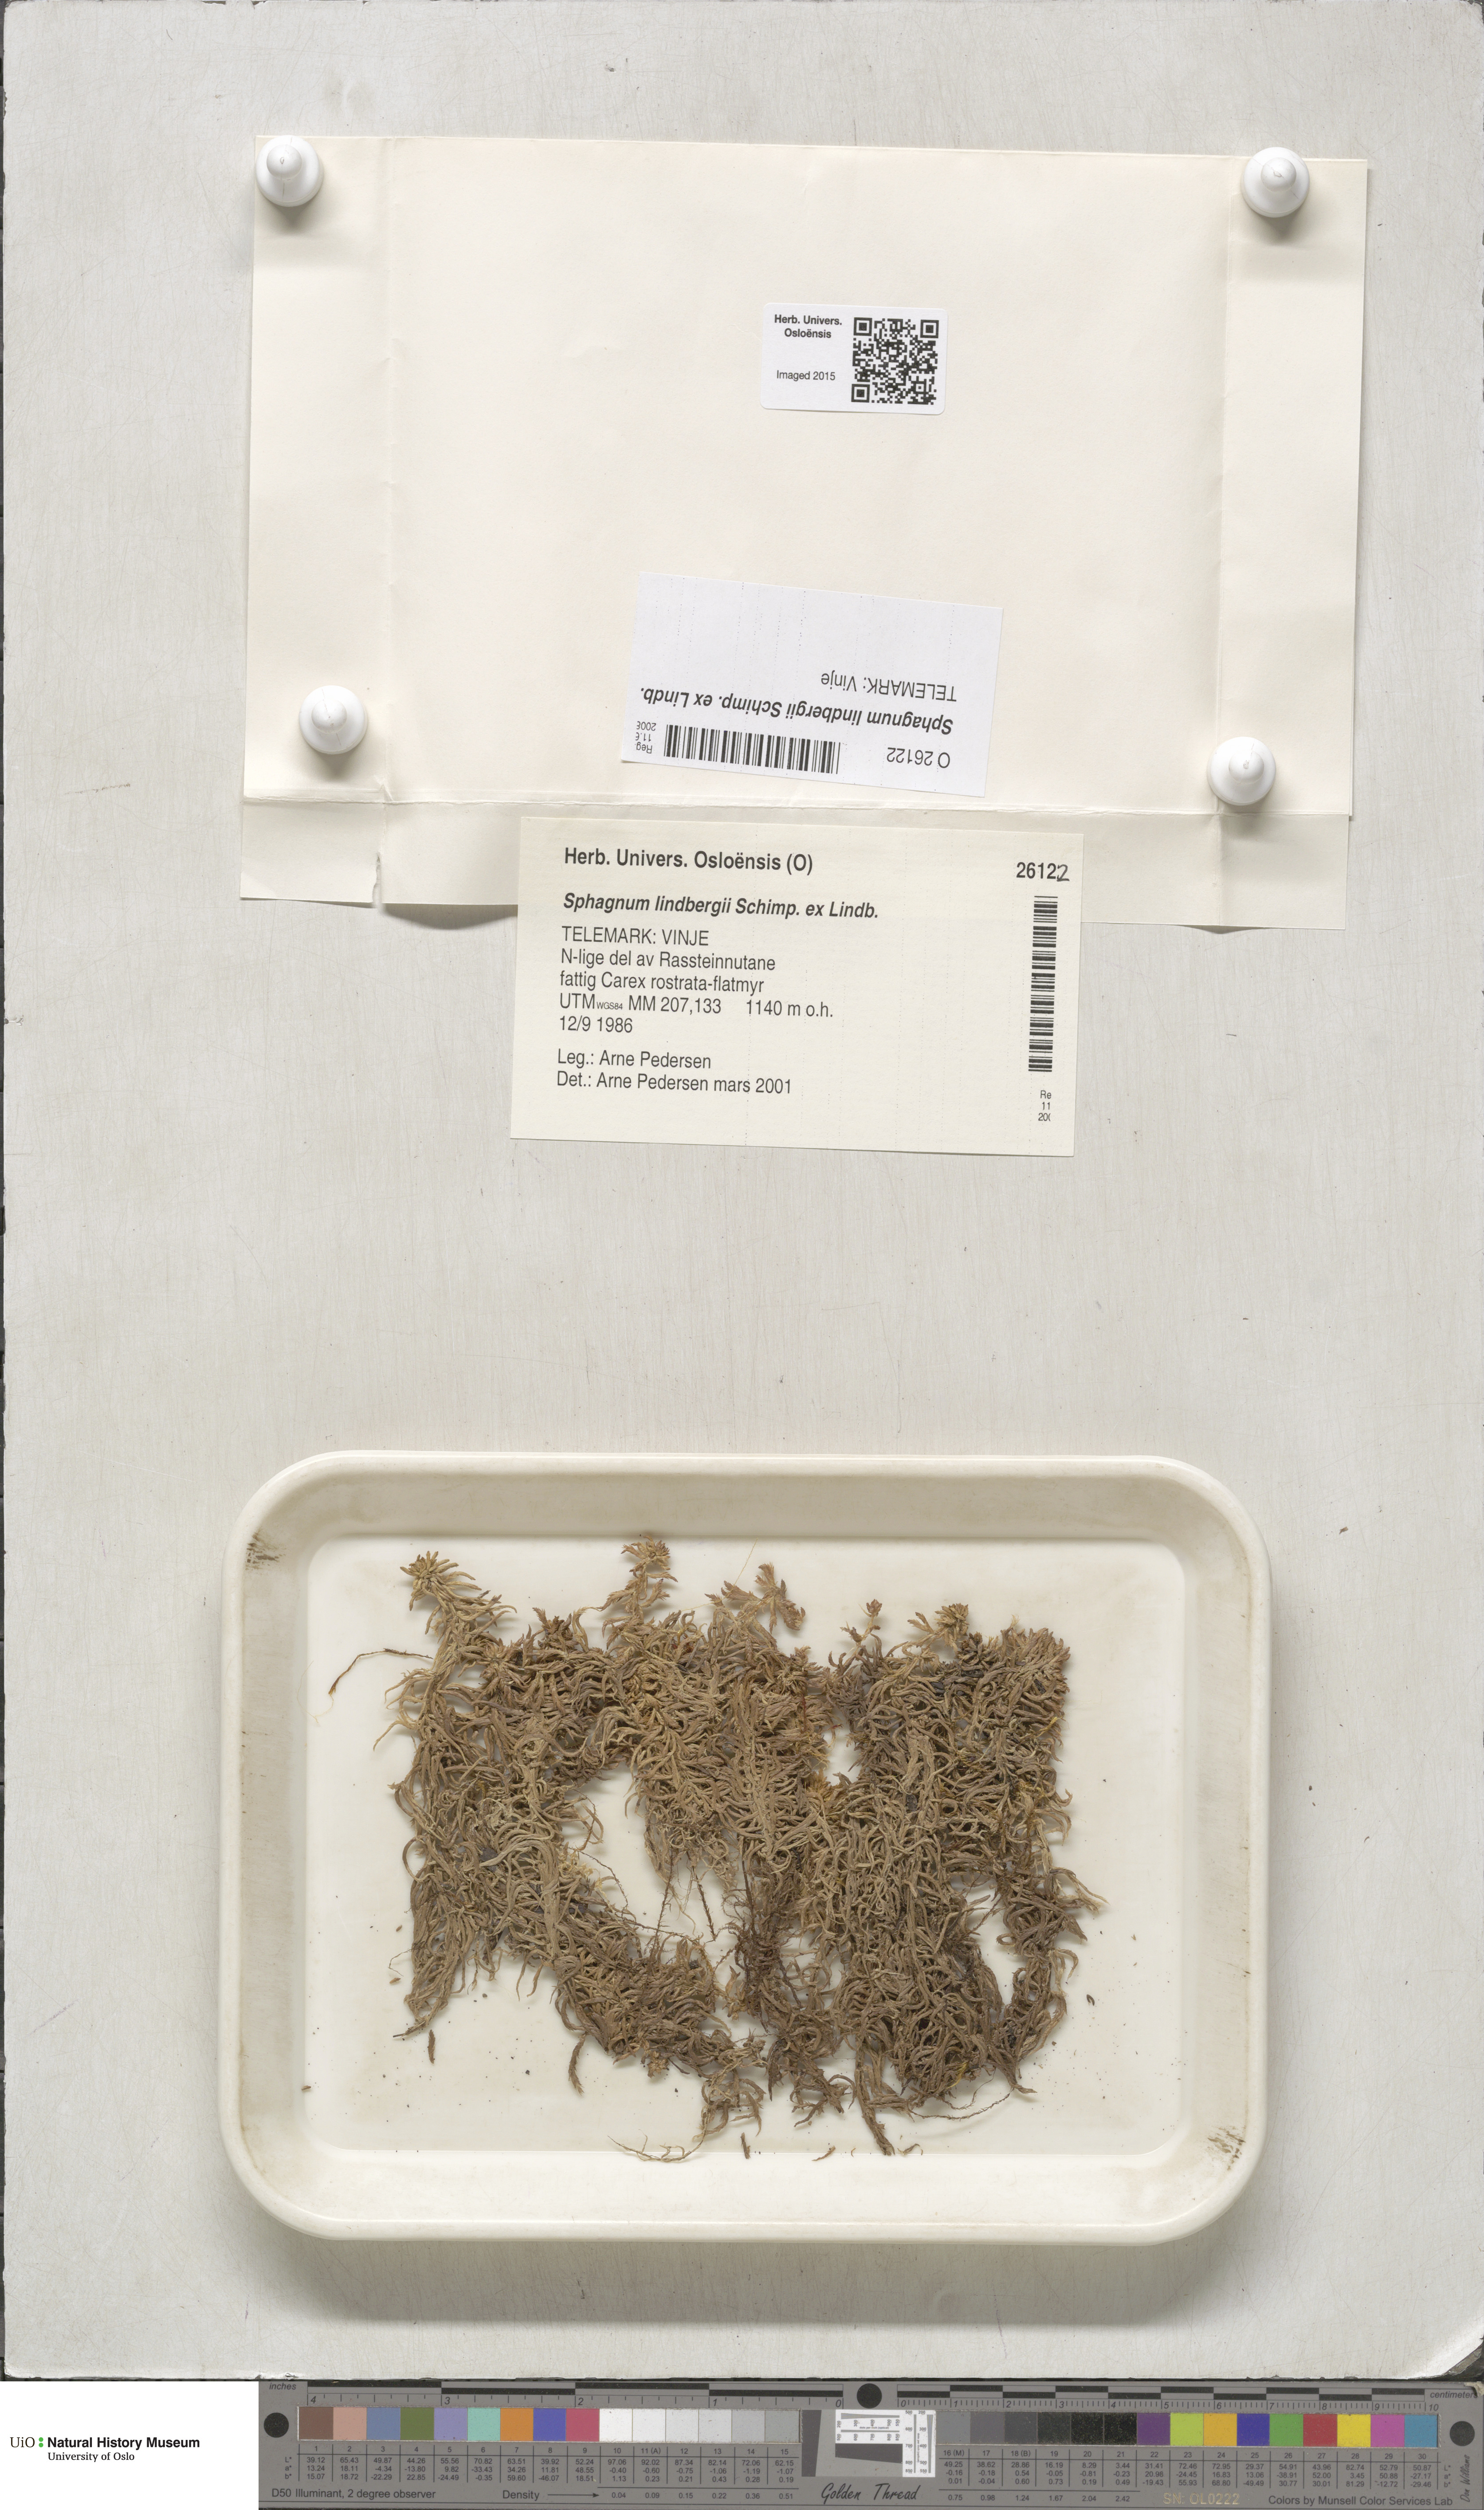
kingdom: Plantae
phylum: Bryophyta
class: Sphagnopsida
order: Sphagnales
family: Sphagnaceae
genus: Sphagnum
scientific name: Sphagnum lindbergii
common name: Lindberg's peat moss
